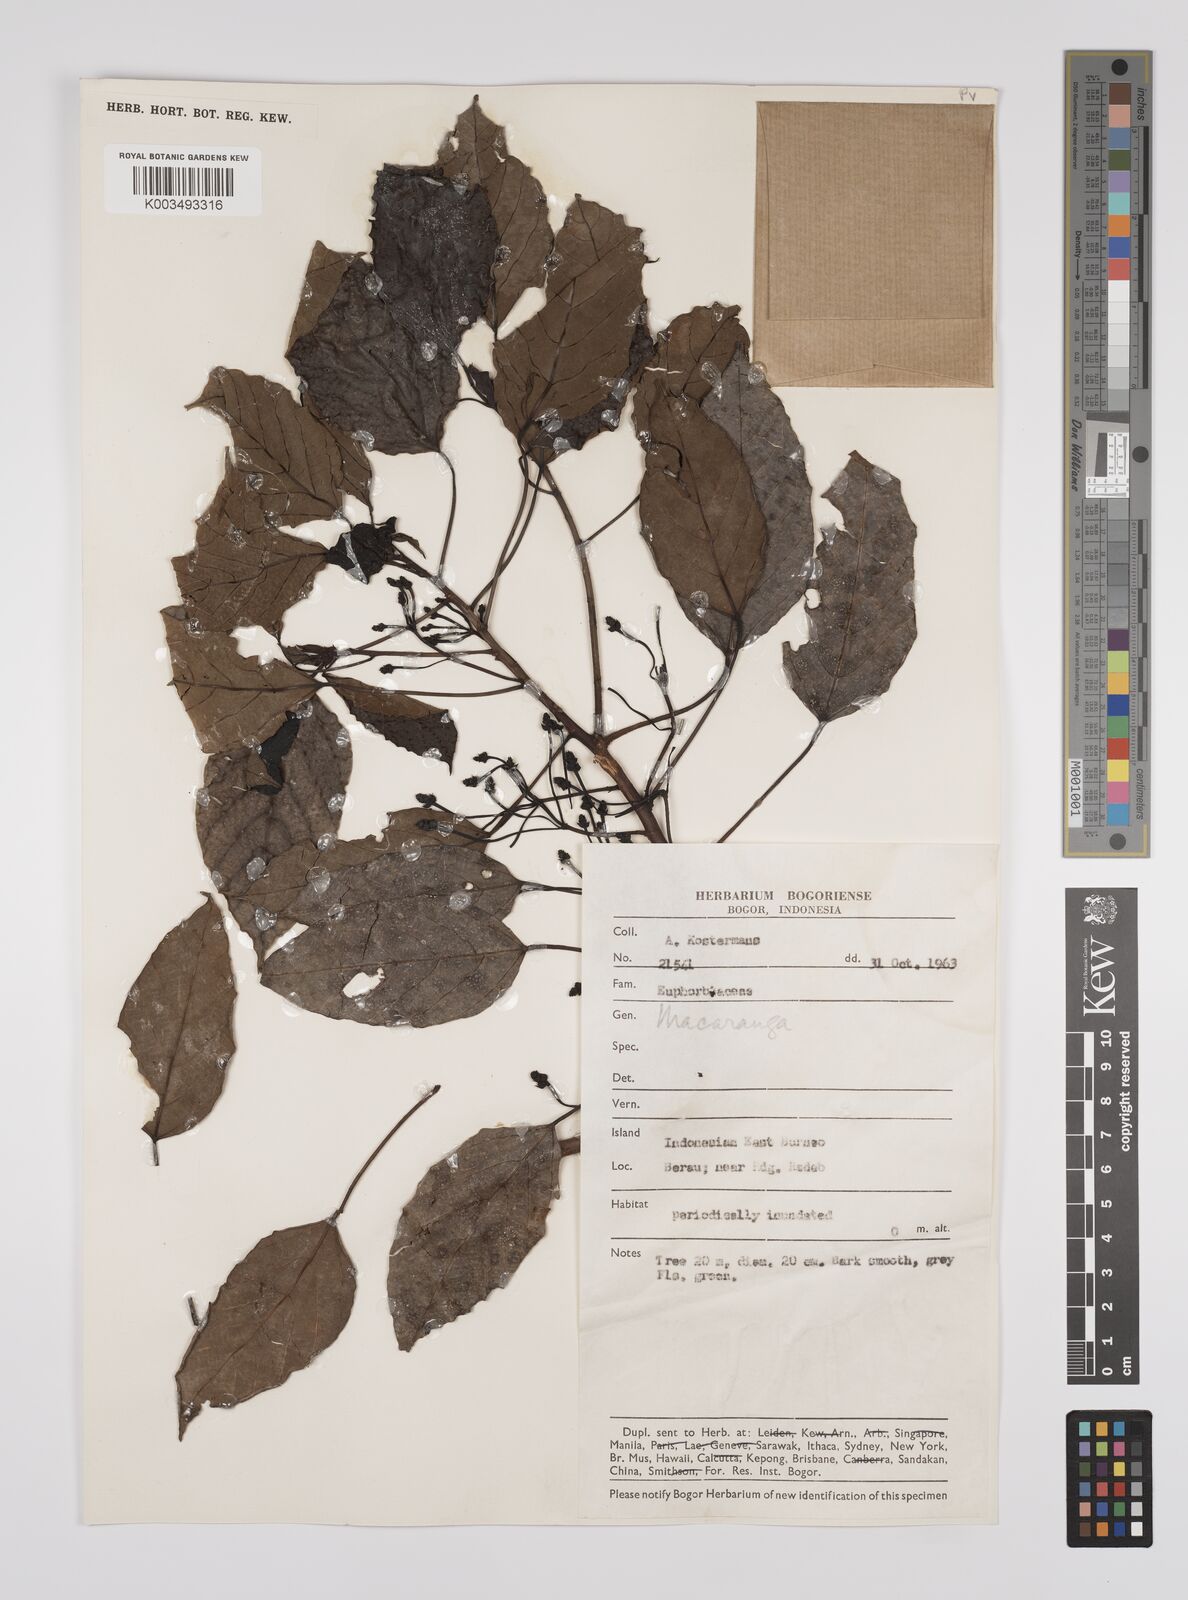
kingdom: Plantae
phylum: Tracheophyta
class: Magnoliopsida
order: Malpighiales
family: Euphorbiaceae
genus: Macaranga
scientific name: Macaranga conifera
